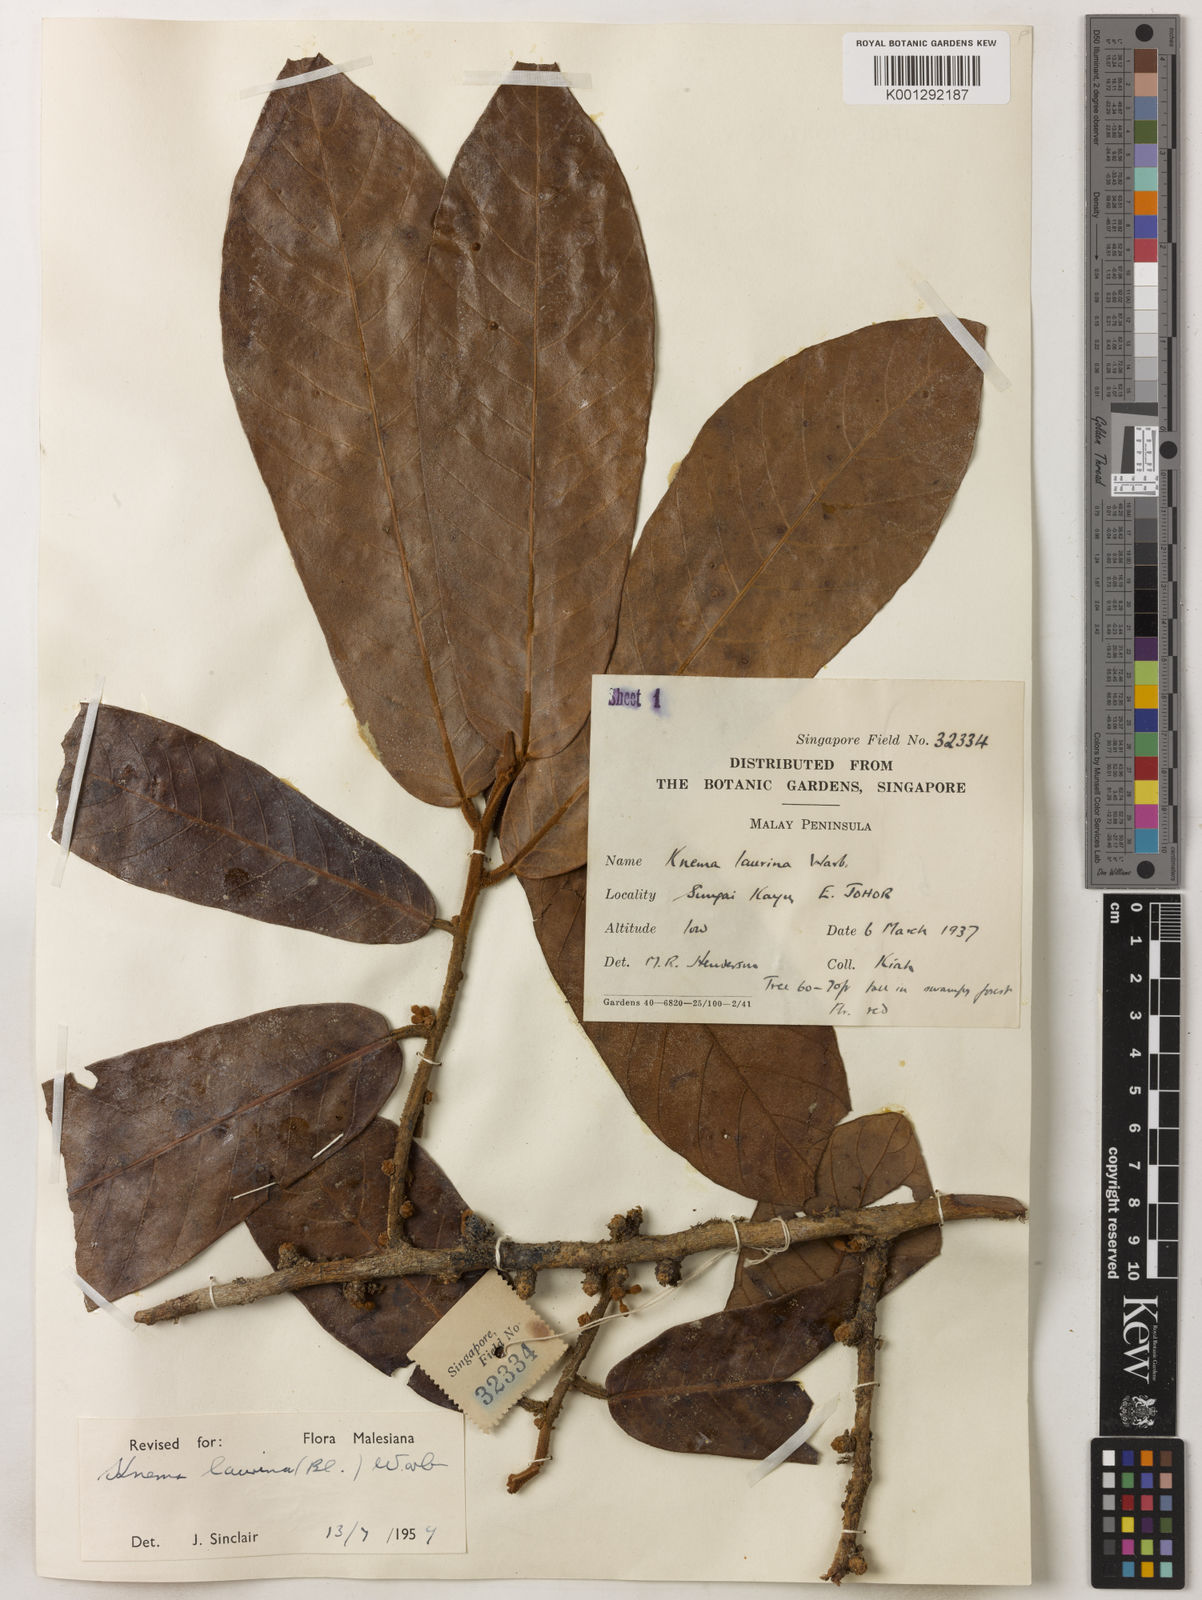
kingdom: Plantae
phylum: Tracheophyta
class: Magnoliopsida
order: Magnoliales
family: Myristicaceae
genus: Knema
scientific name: Knema laurina
